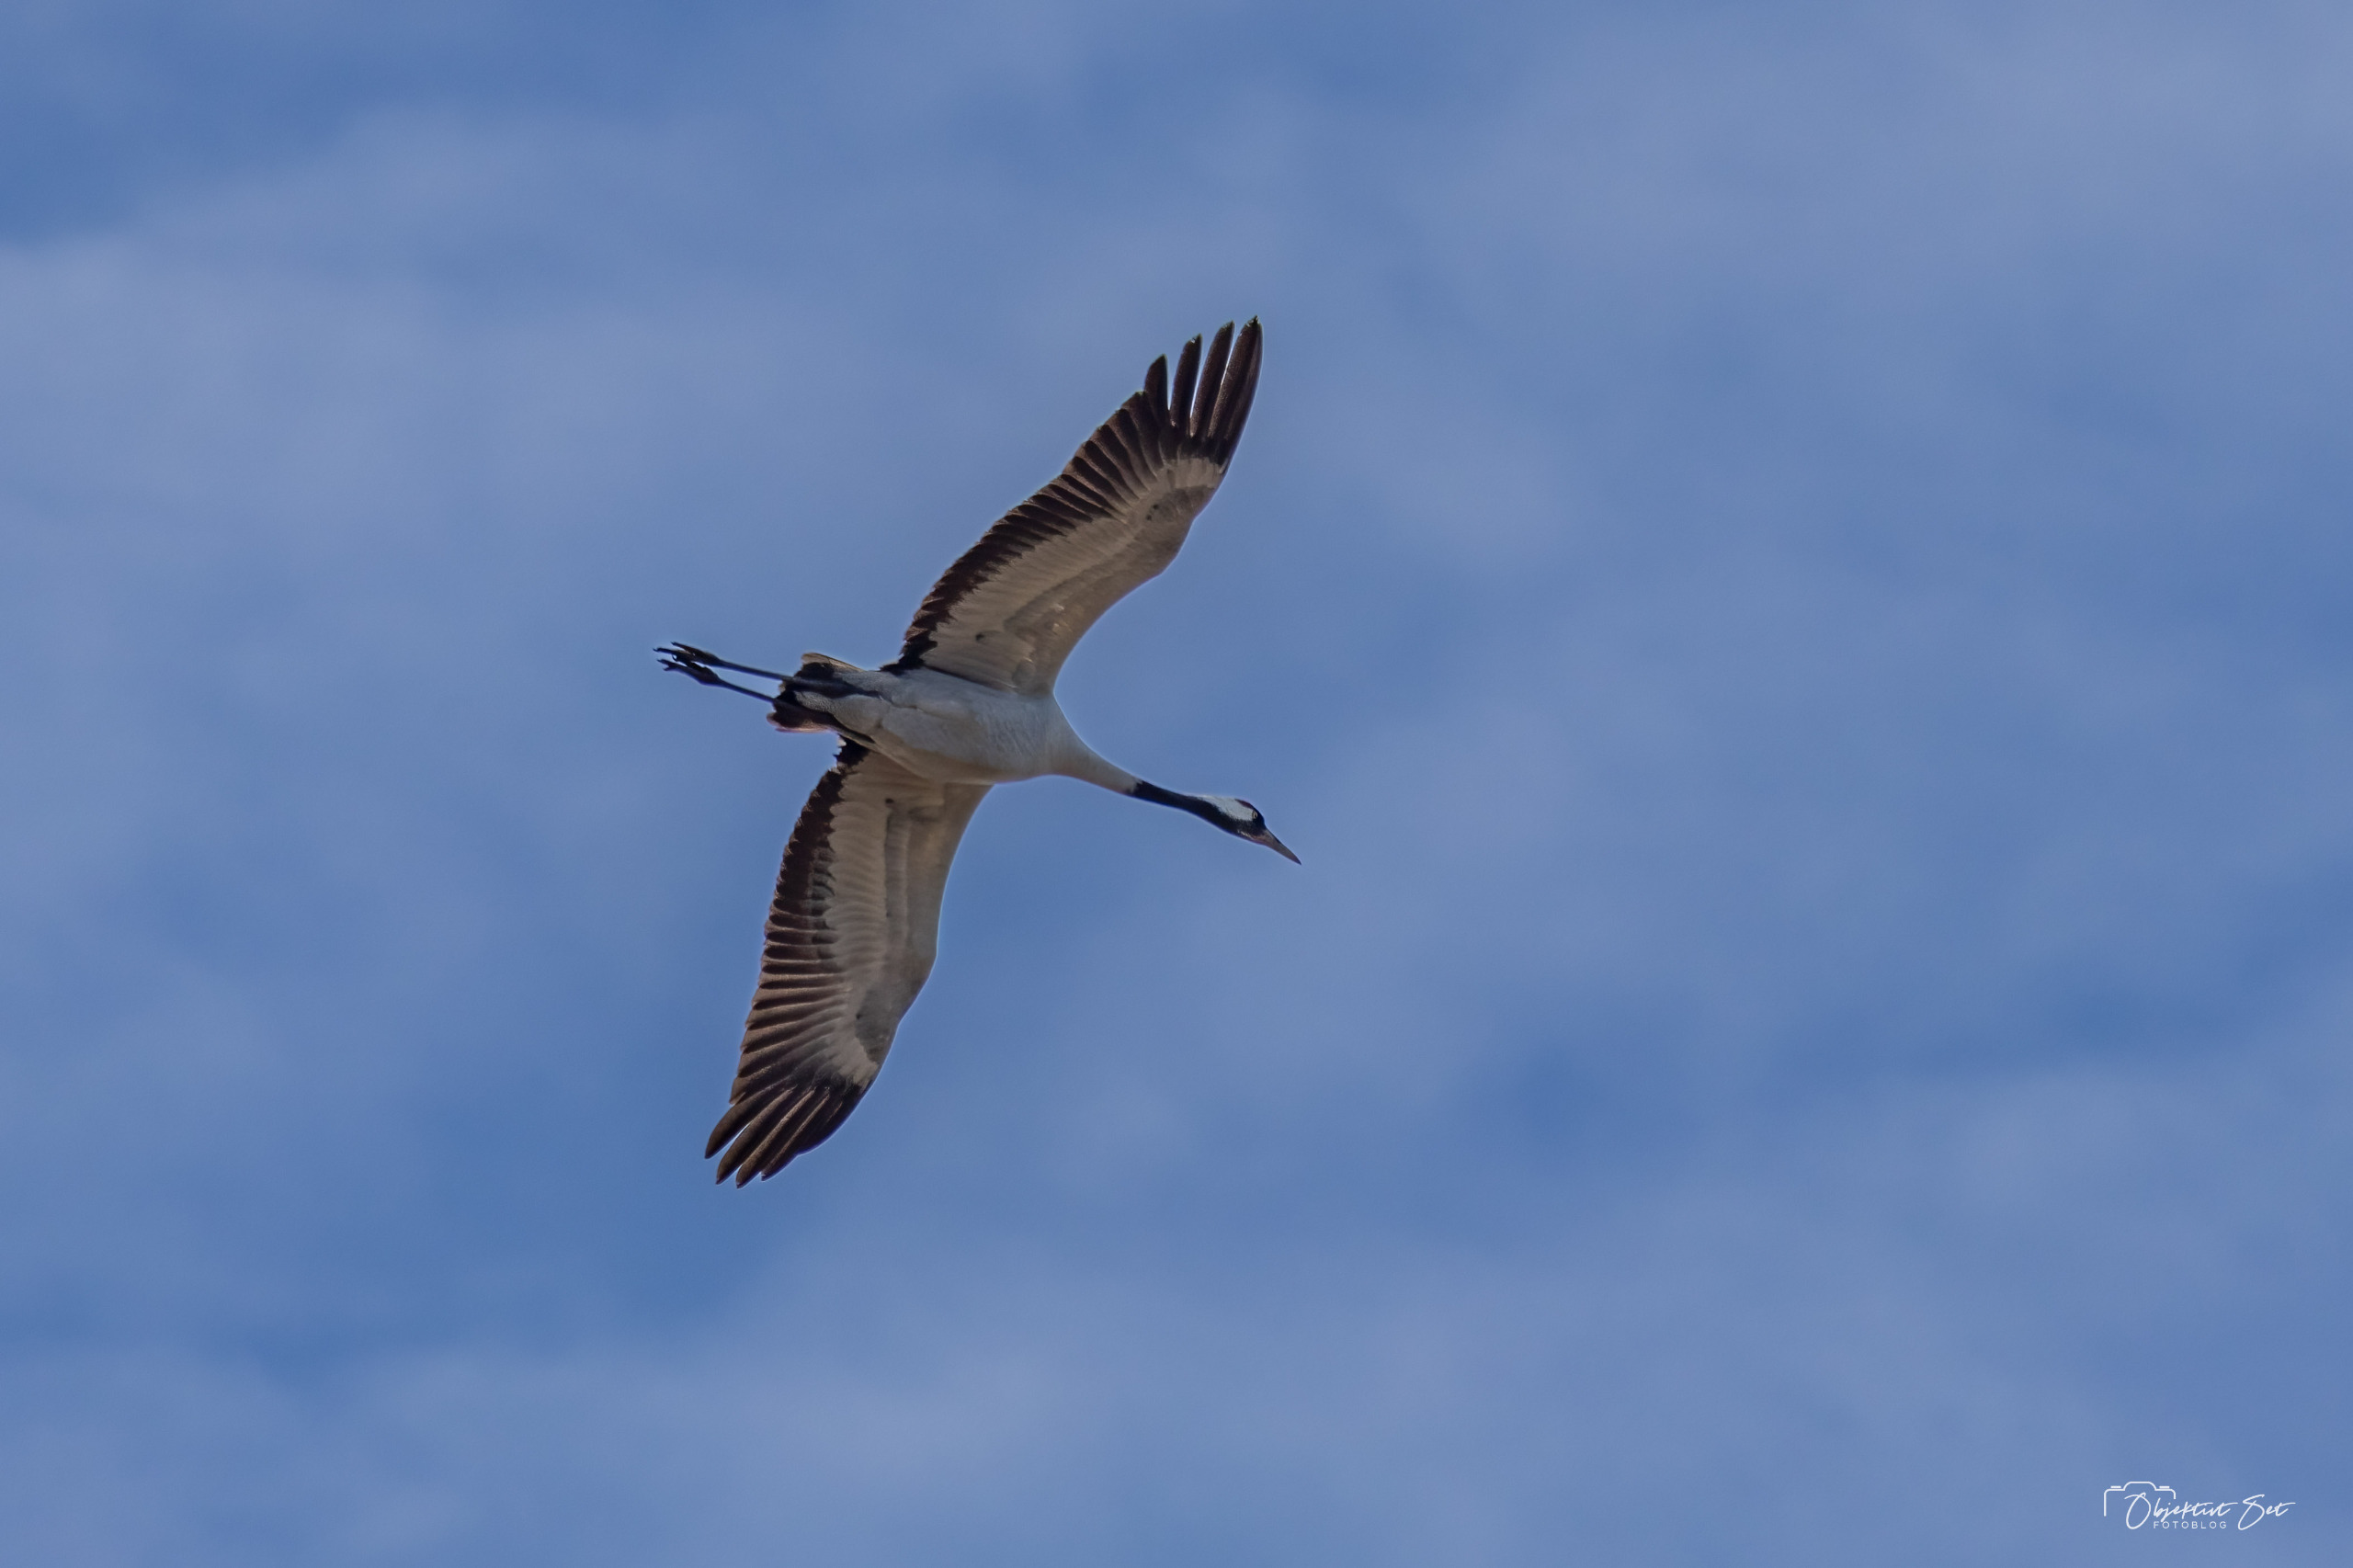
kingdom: Animalia
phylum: Chordata
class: Aves
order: Gruiformes
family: Gruidae
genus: Grus
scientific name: Grus grus
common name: Trane
